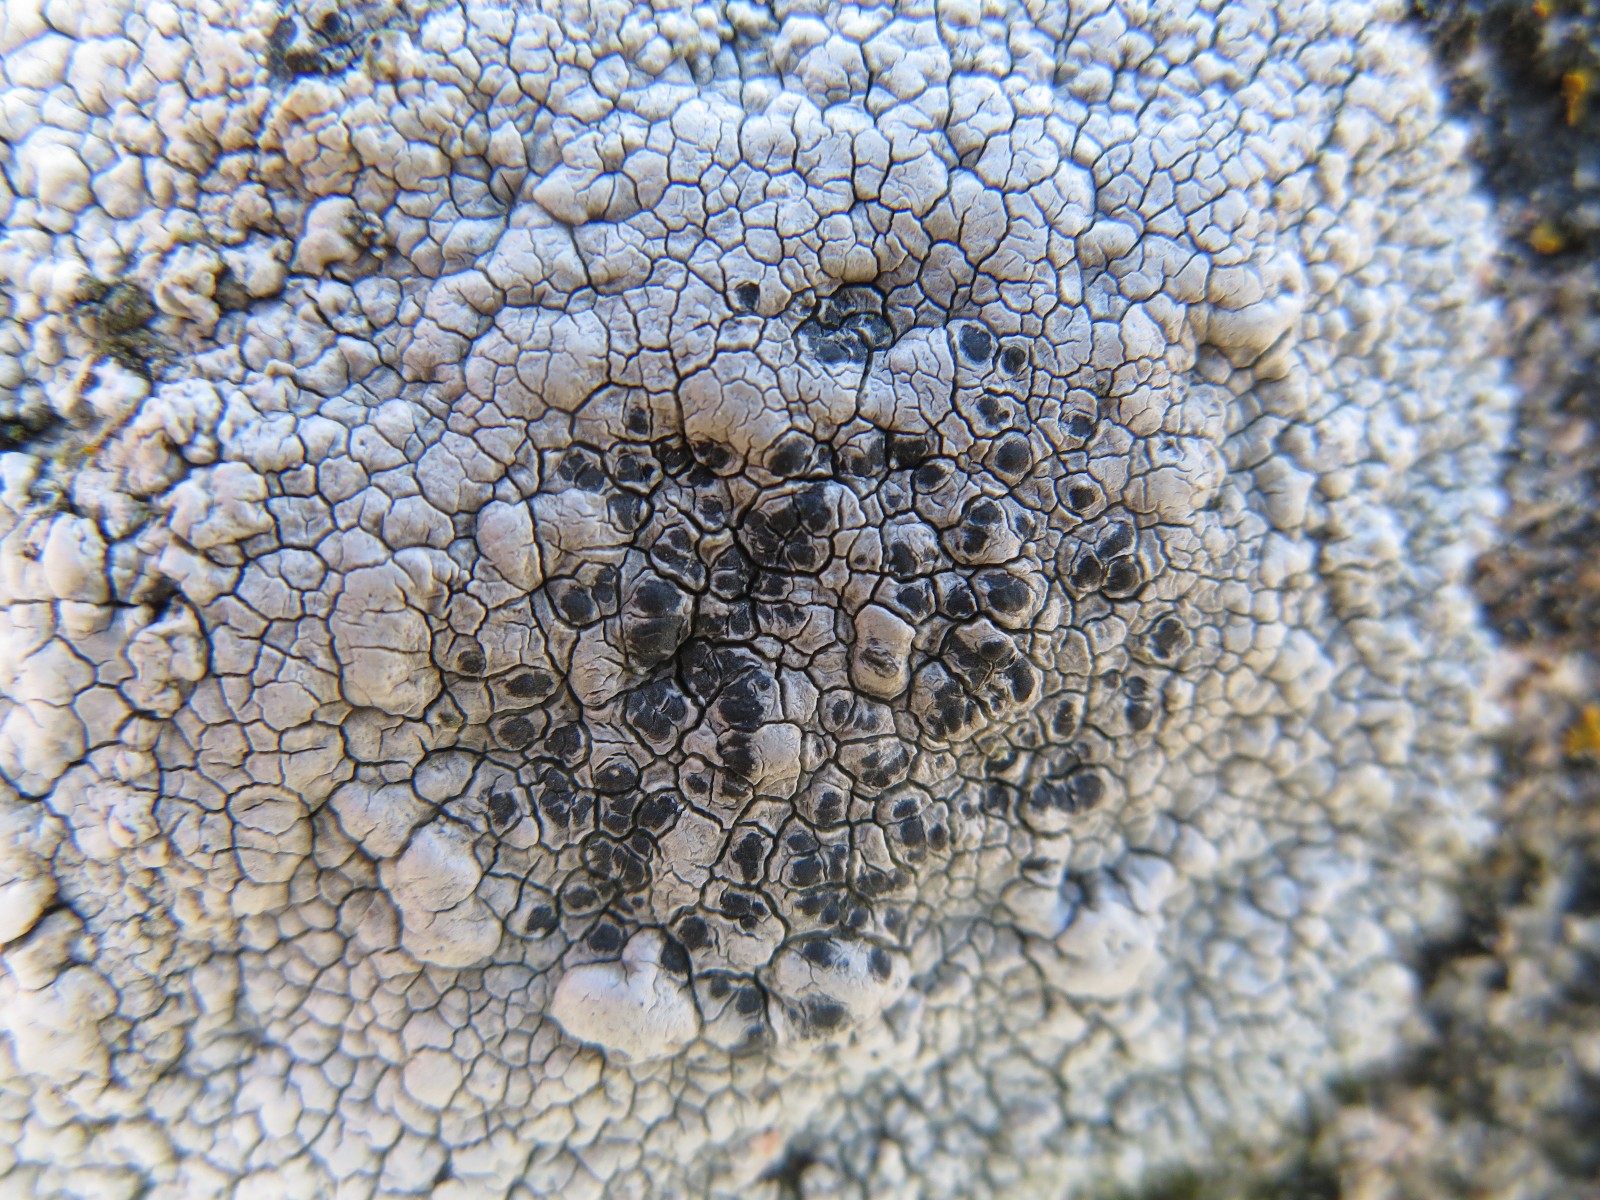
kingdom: Fungi
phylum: Ascomycota
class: Lecanoromycetes
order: Pertusariales
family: Megasporaceae
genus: Aspicilia
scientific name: Aspicilia cinerea
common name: grå hulskivelav
